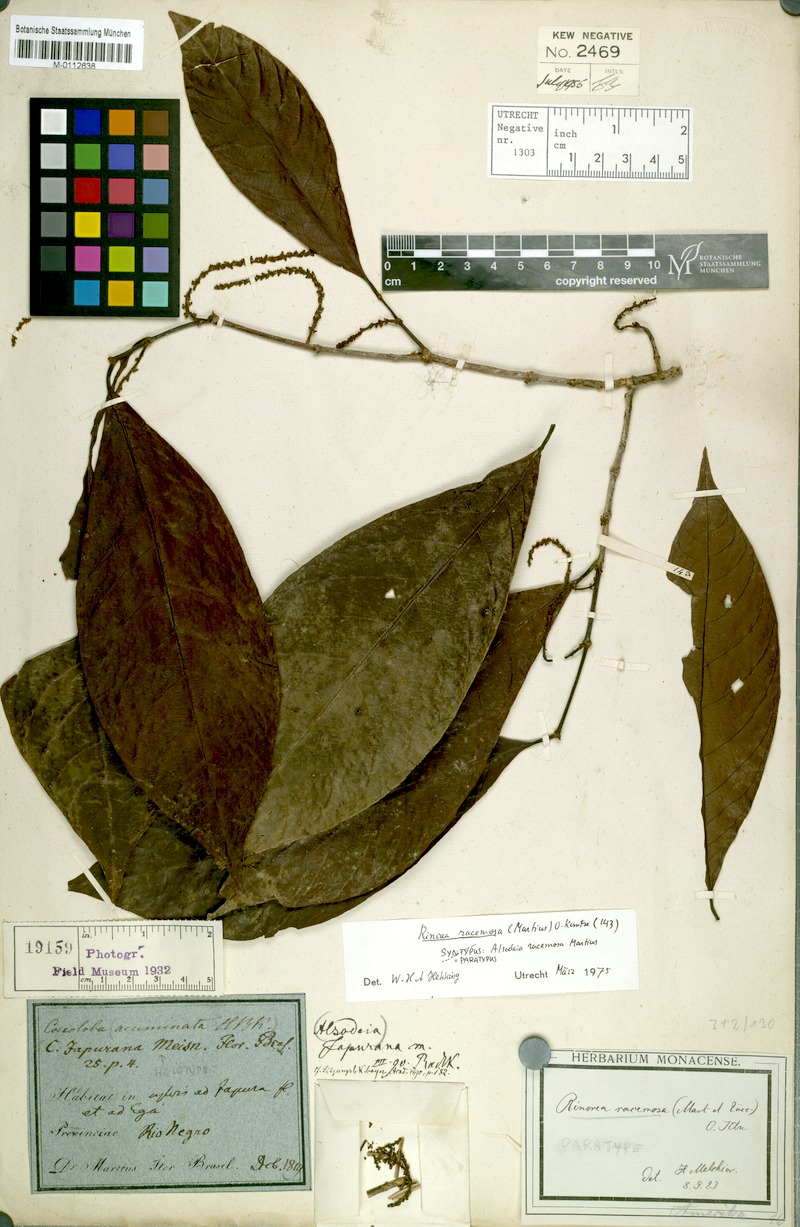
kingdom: Plantae
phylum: Tracheophyta
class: Magnoliopsida
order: Malpighiales
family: Violaceae
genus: Rinorea
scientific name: Rinorea racemosa
